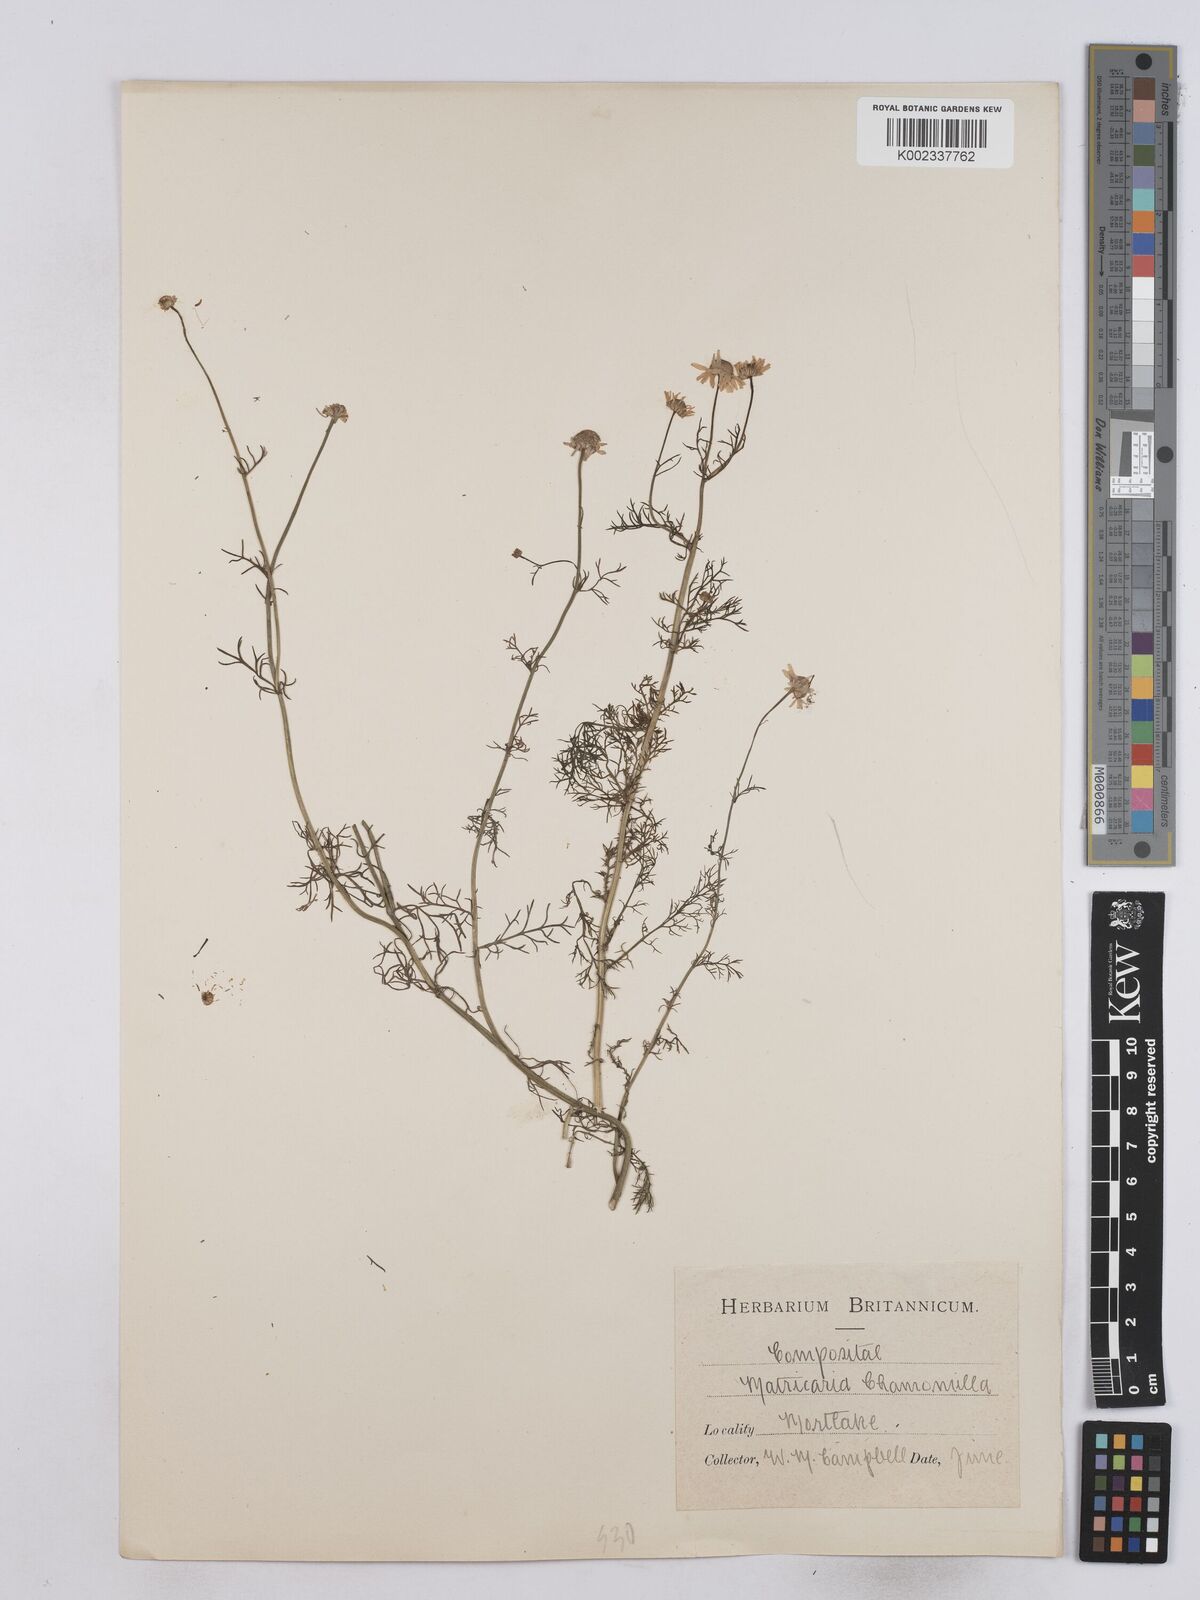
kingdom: Plantae
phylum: Tracheophyta
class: Magnoliopsida
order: Asterales
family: Asteraceae
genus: Matricaria
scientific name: Matricaria chamomilla
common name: Scented mayweed
